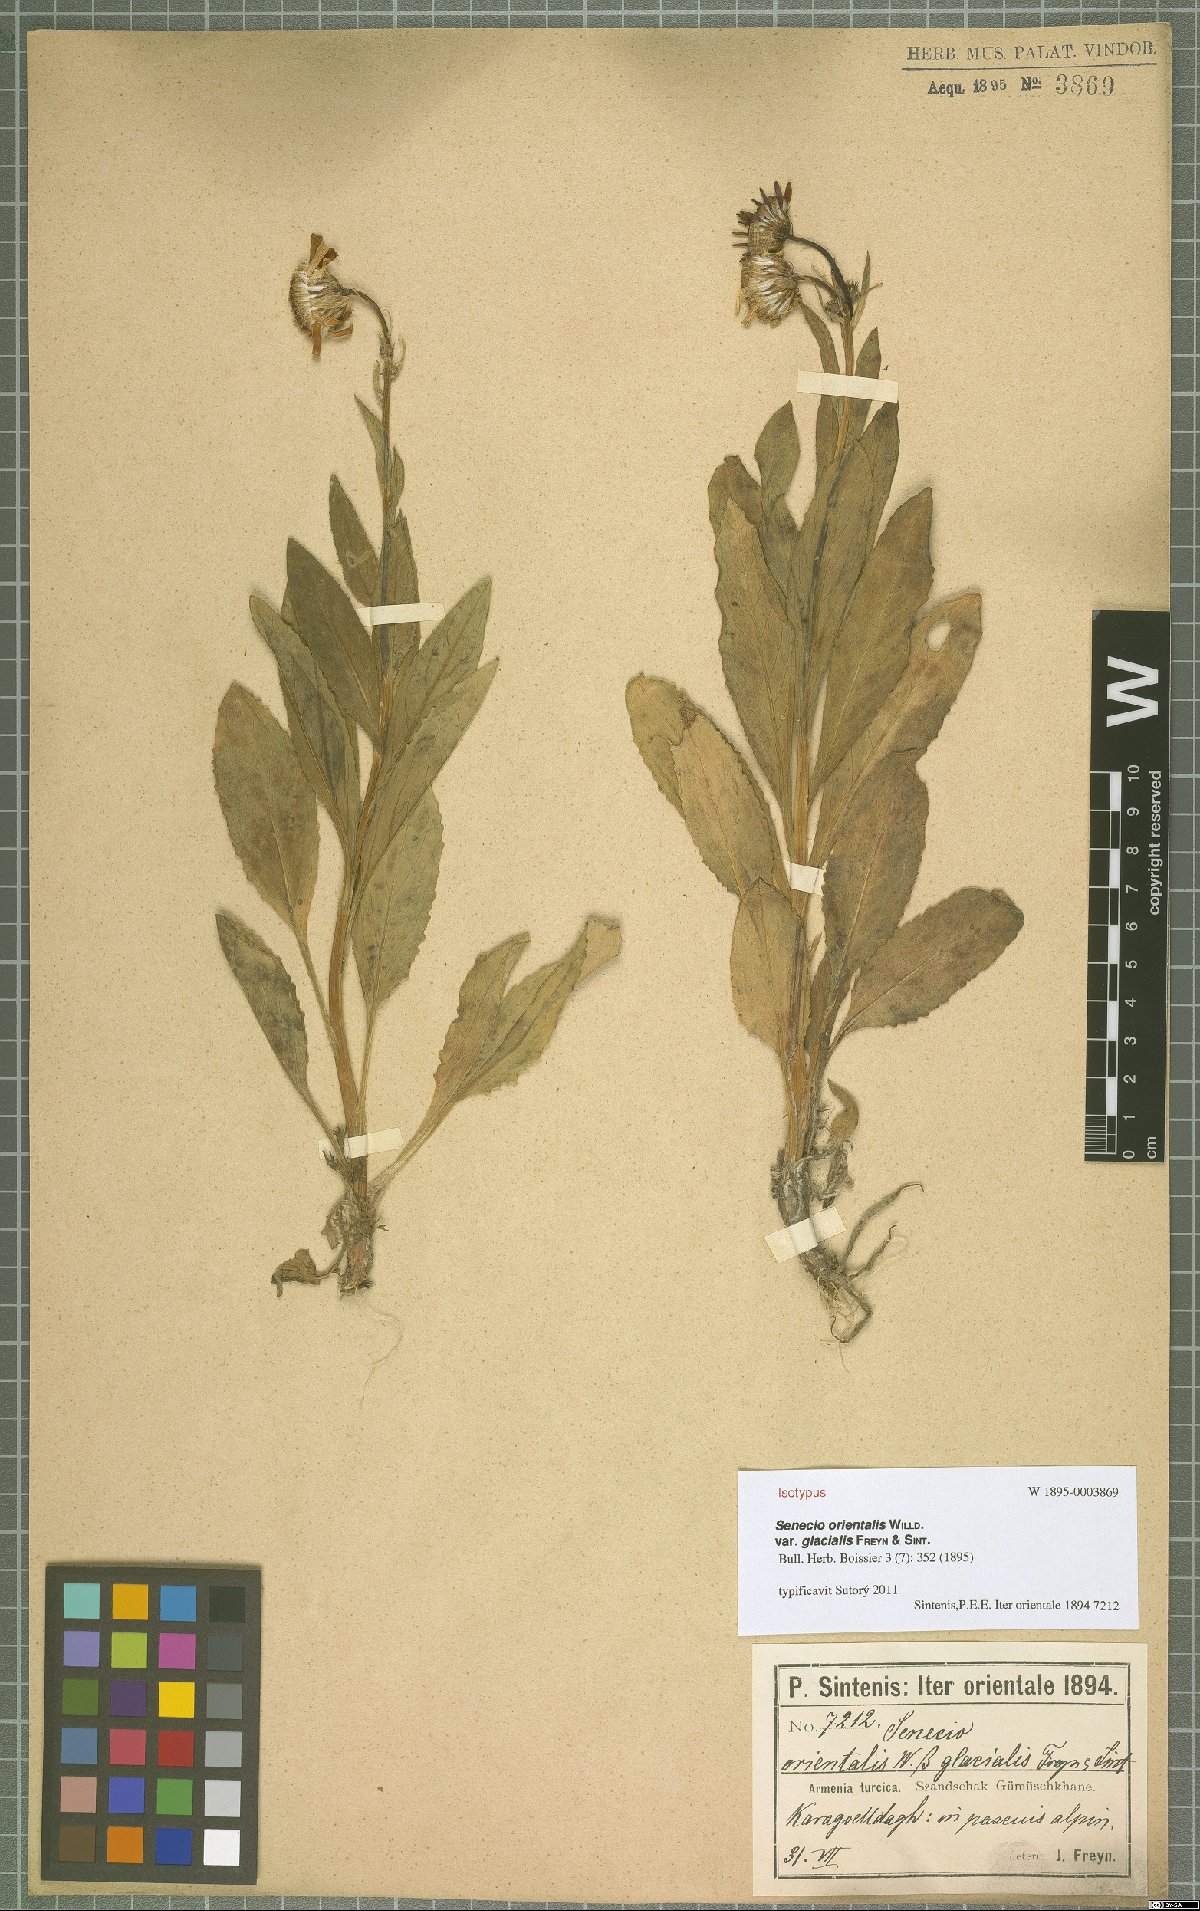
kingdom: Plantae
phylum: Tracheophyta
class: Magnoliopsida
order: Asterales
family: Asteraceae
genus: Senecio
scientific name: Senecio orientalis
